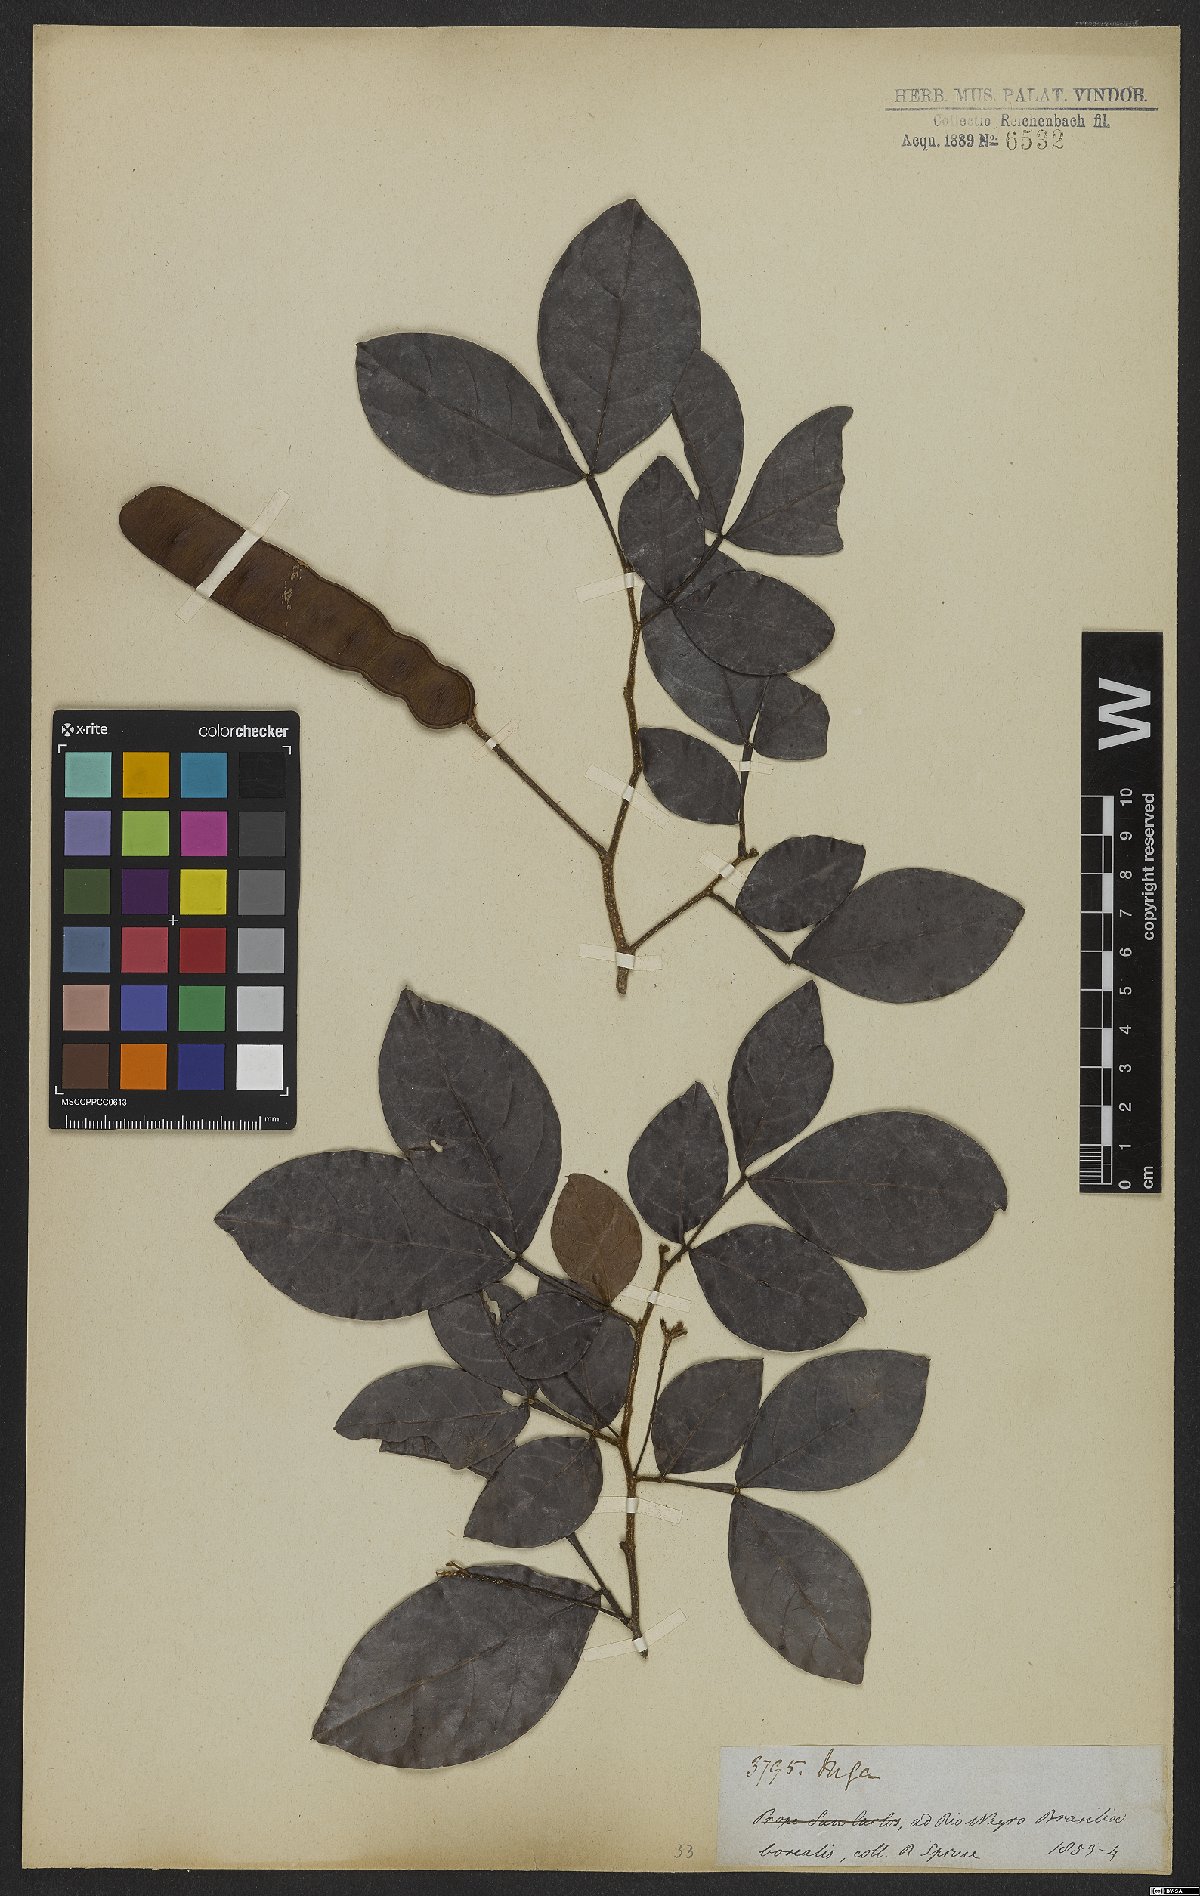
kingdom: Plantae
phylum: Tracheophyta
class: Magnoliopsida
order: Fabales
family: Fabaceae
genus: Inga
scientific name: Inga
